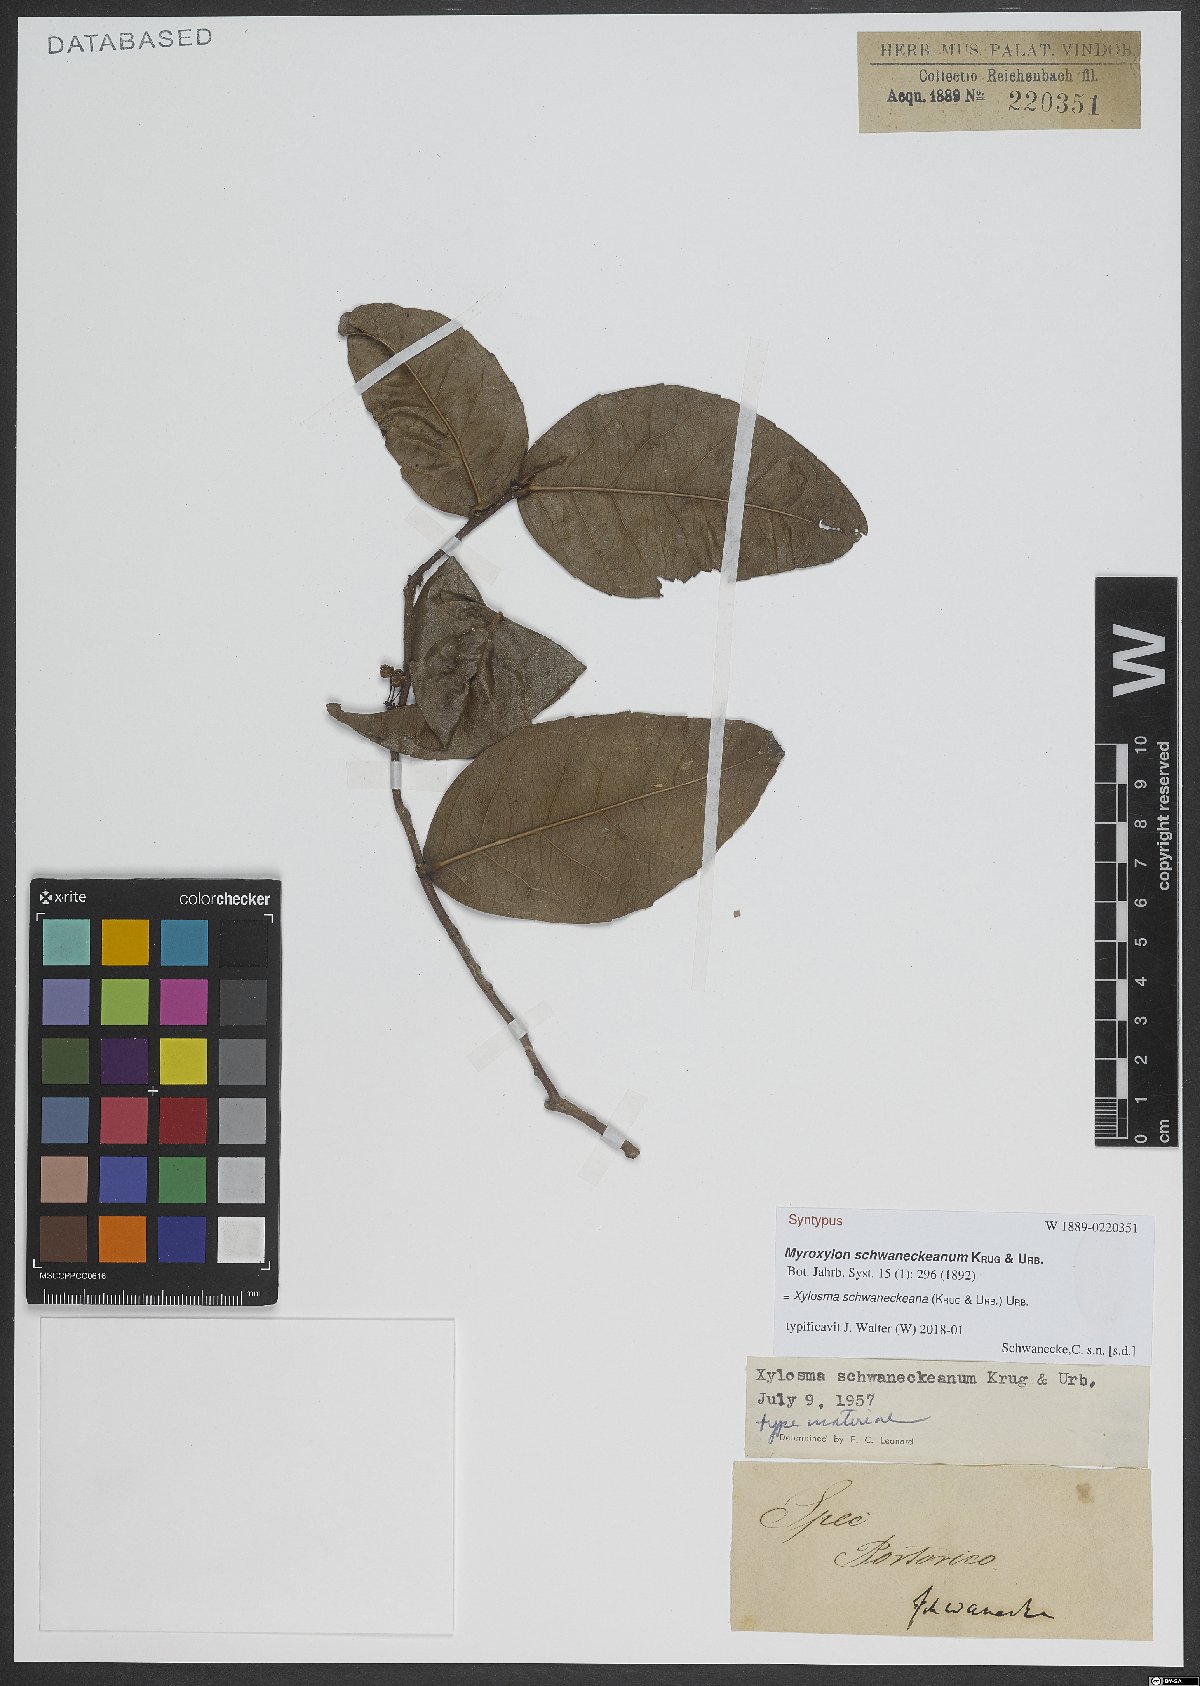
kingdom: Plantae
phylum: Tracheophyta
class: Magnoliopsida
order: Malpighiales
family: Salicaceae
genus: Xylosma
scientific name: Xylosma schwaneckeana
